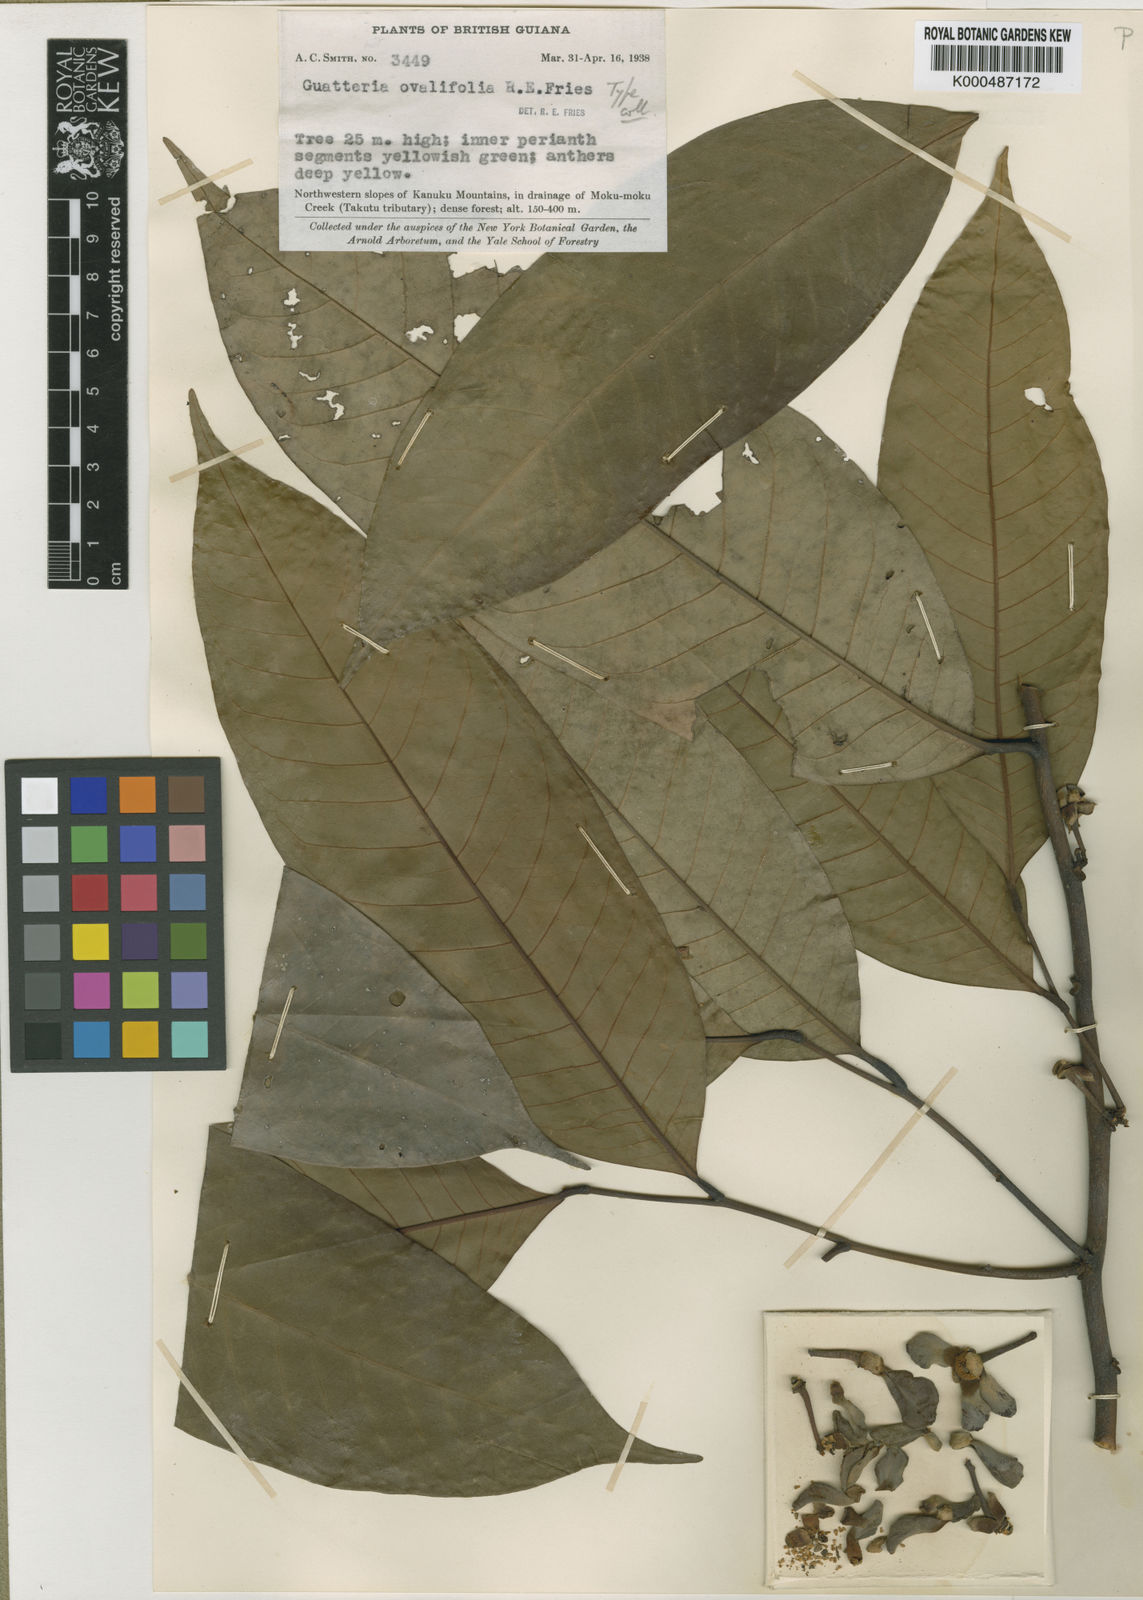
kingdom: Plantae
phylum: Tracheophyta
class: Magnoliopsida
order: Magnoliales
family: Annonaceae
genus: Guatteria
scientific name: Guatteria punctata
